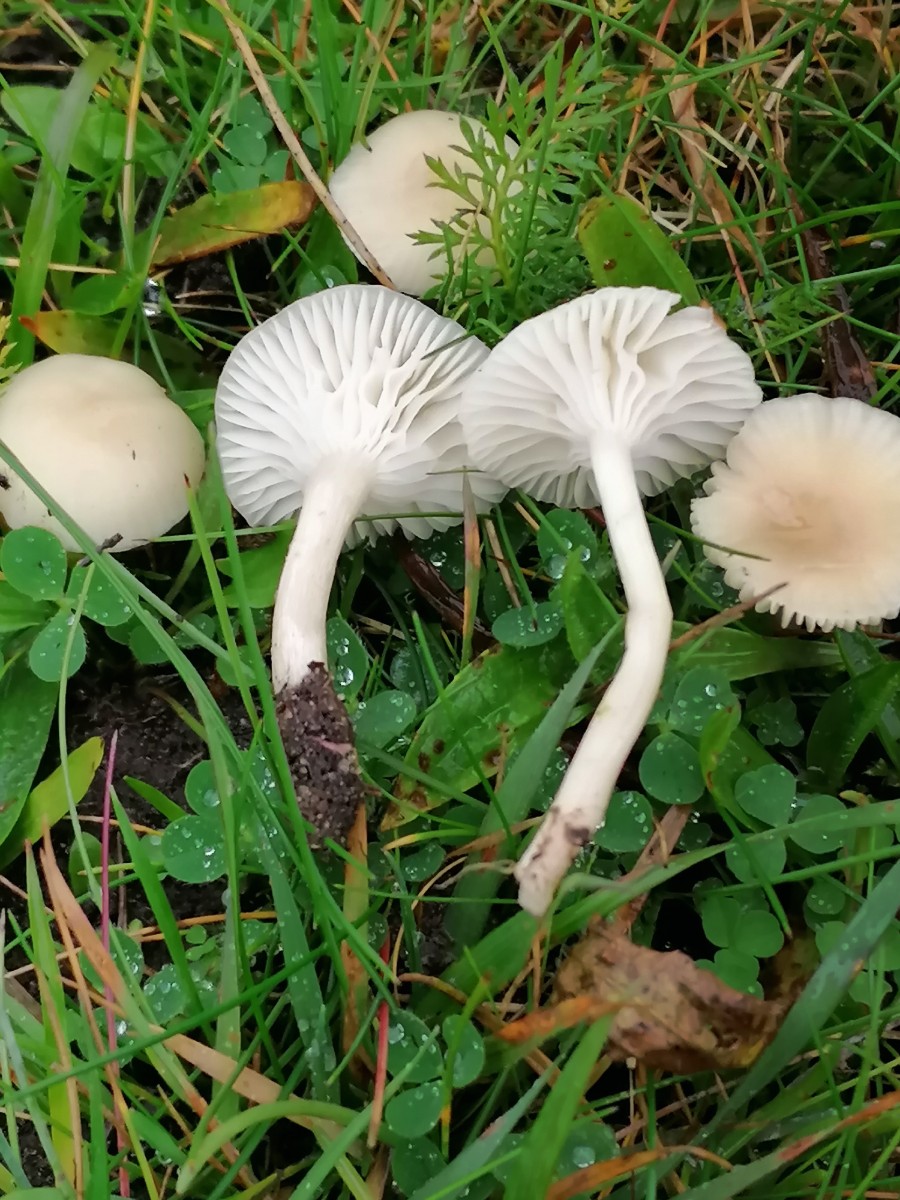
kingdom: Fungi
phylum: Basidiomycota
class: Agaricomycetes
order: Agaricales
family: Hygrophoraceae
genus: Cuphophyllus
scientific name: Cuphophyllus russocoriaceus
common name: ruslæder-vokshat
